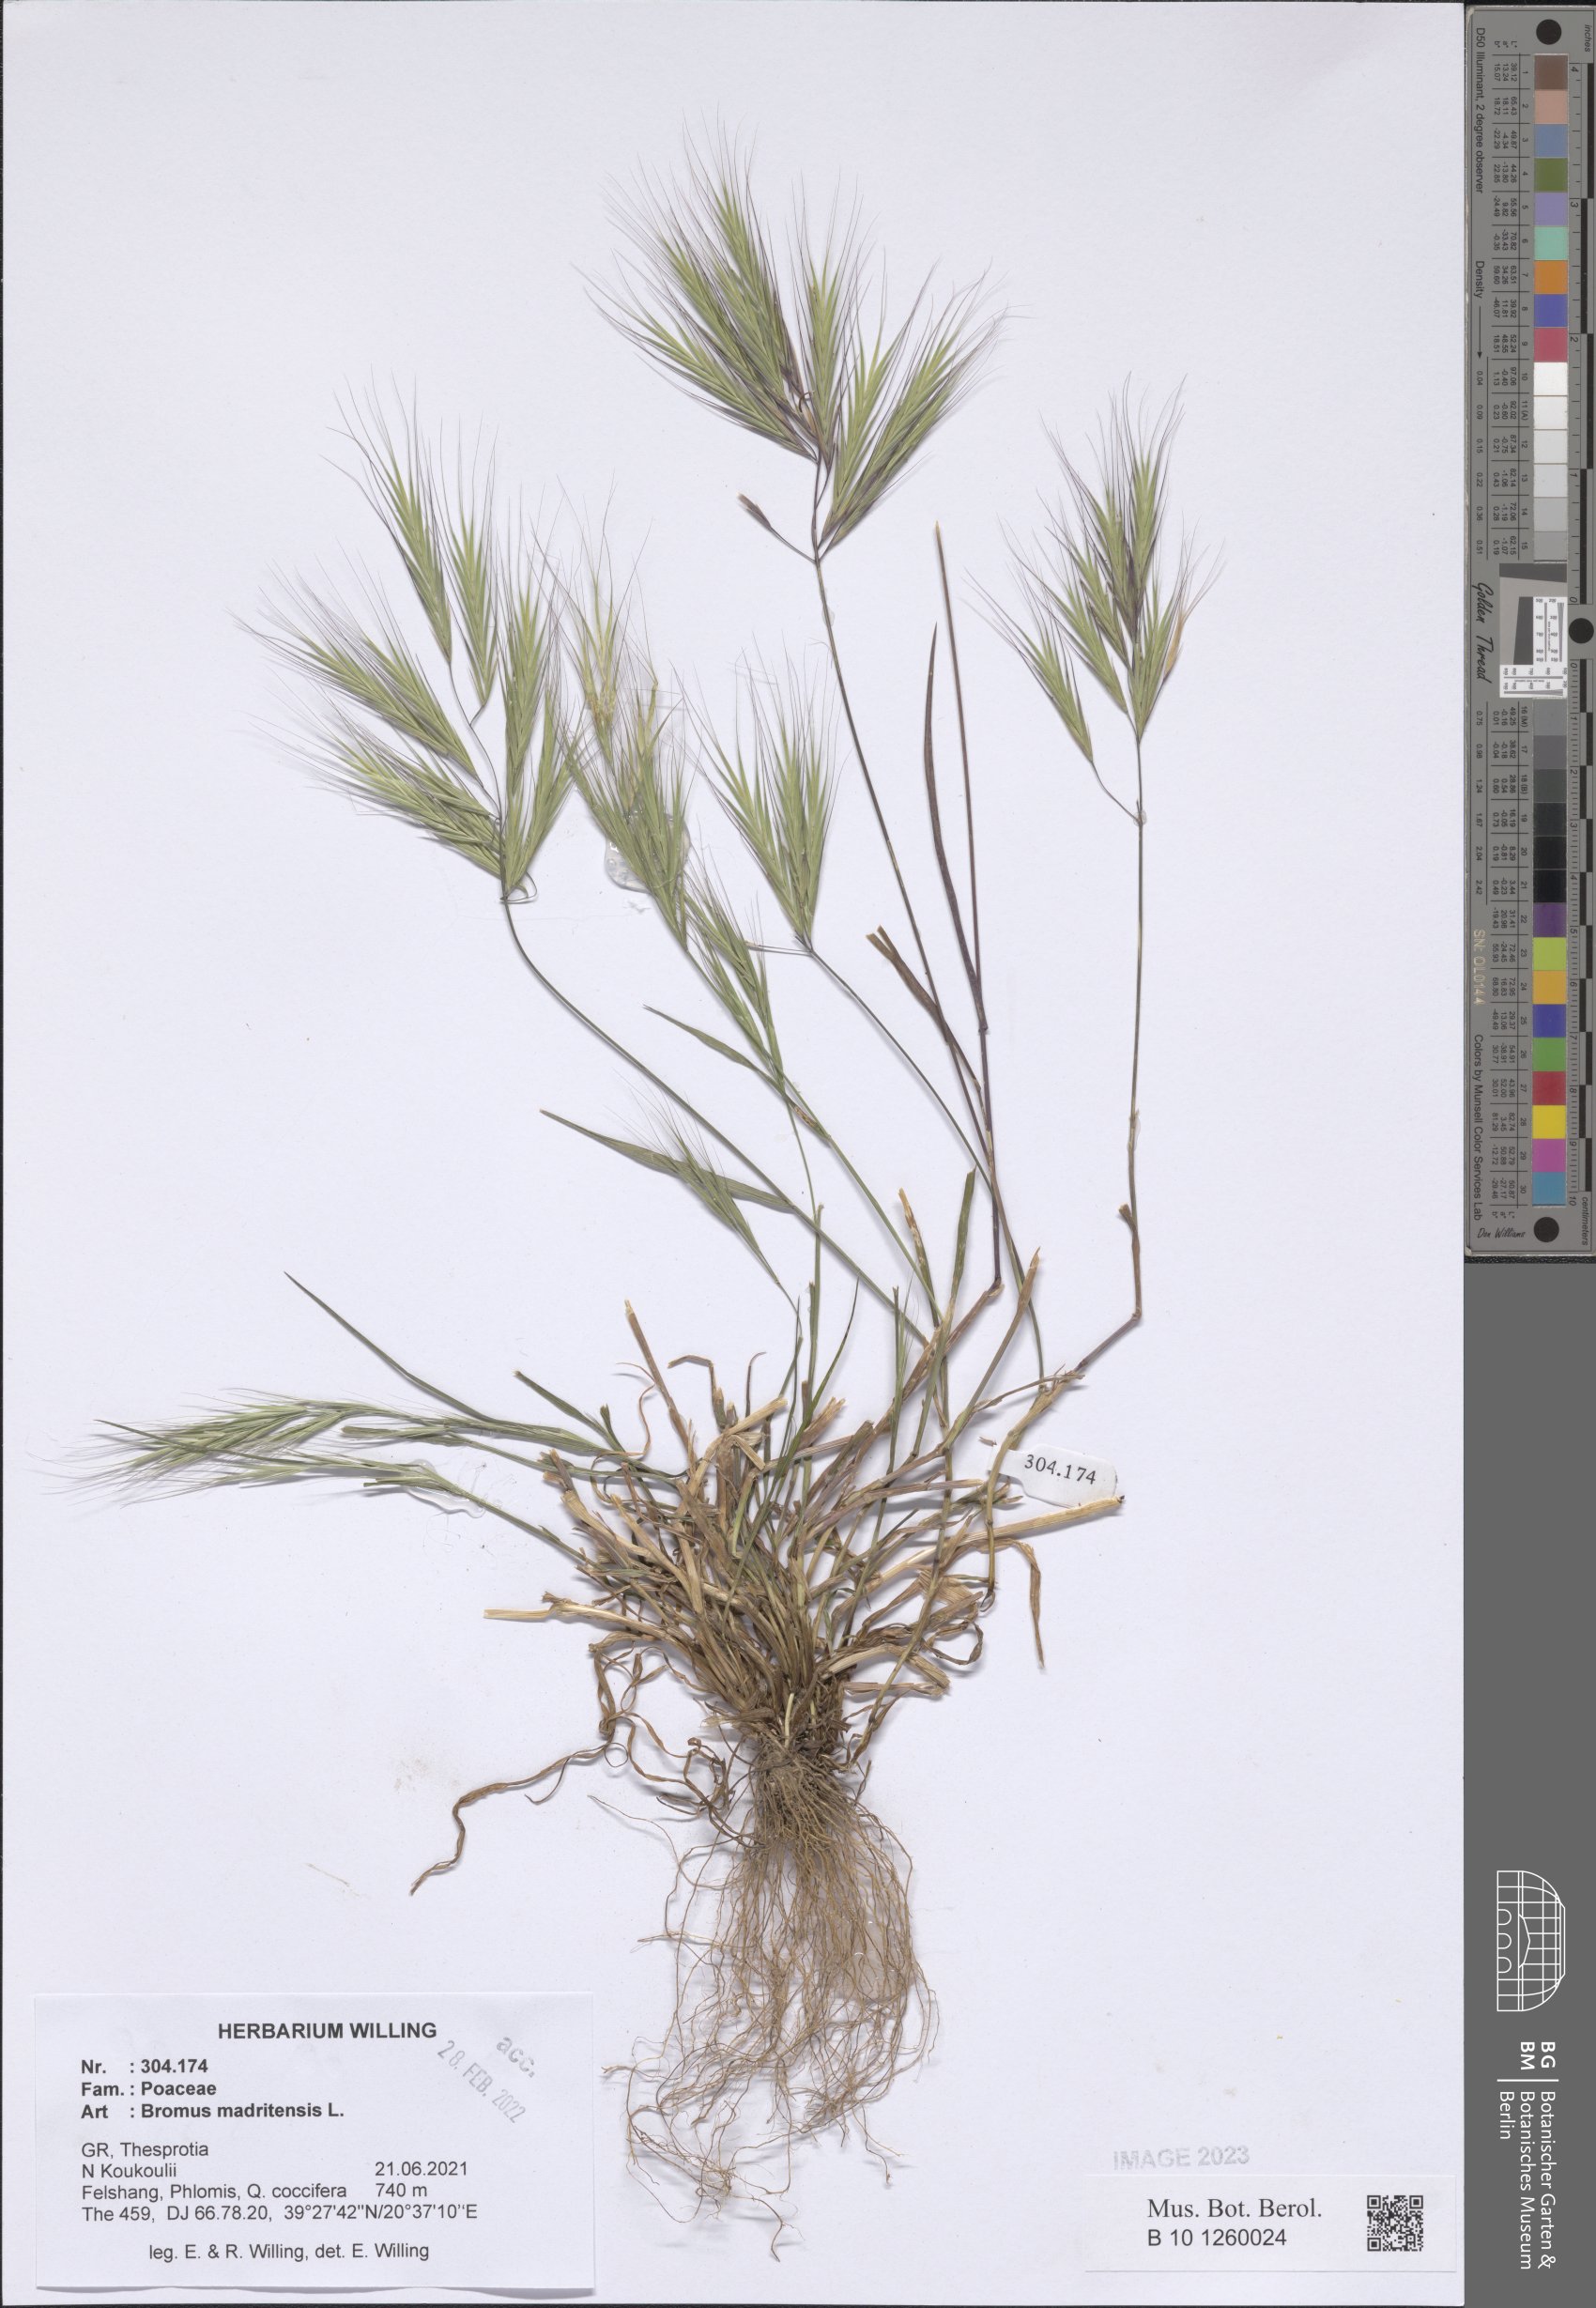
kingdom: Plantae
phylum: Tracheophyta
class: Liliopsida
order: Poales
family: Poaceae
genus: Bromus
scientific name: Bromus madritensis
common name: Compact brome
